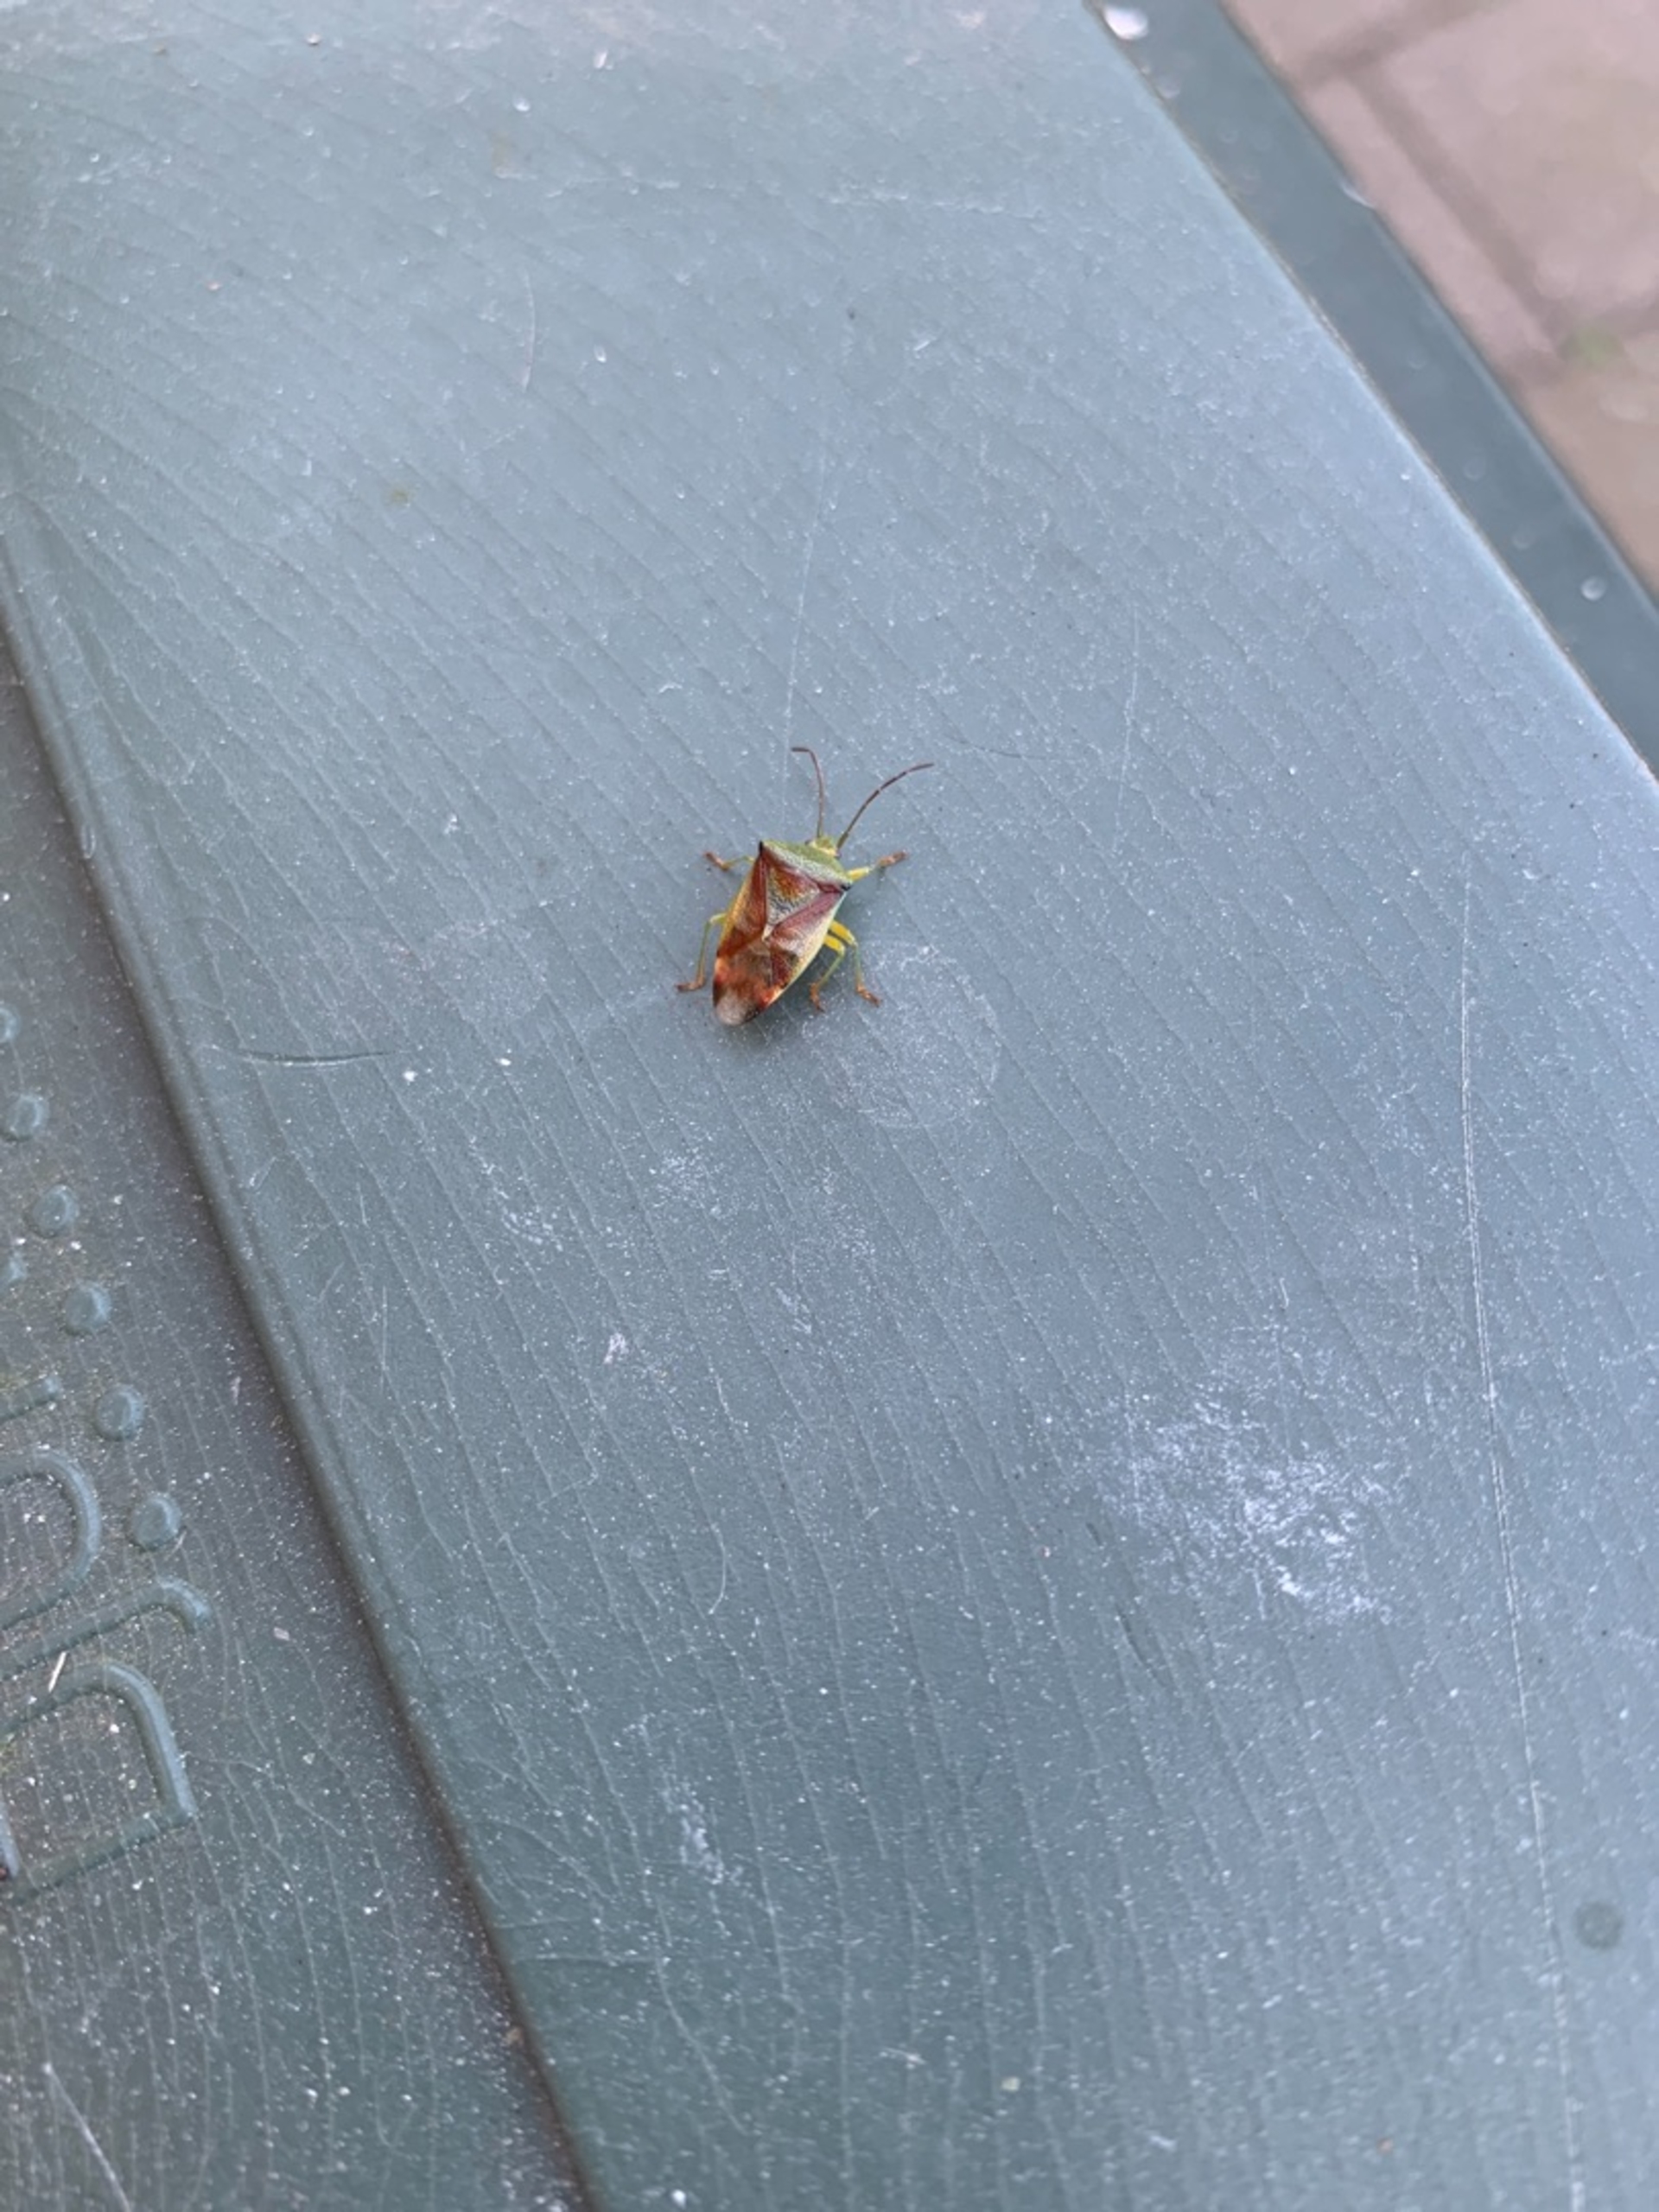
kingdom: Animalia
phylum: Arthropoda
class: Insecta
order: Hemiptera
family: Acanthosomatidae
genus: Elasmostethus
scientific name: Elasmostethus
